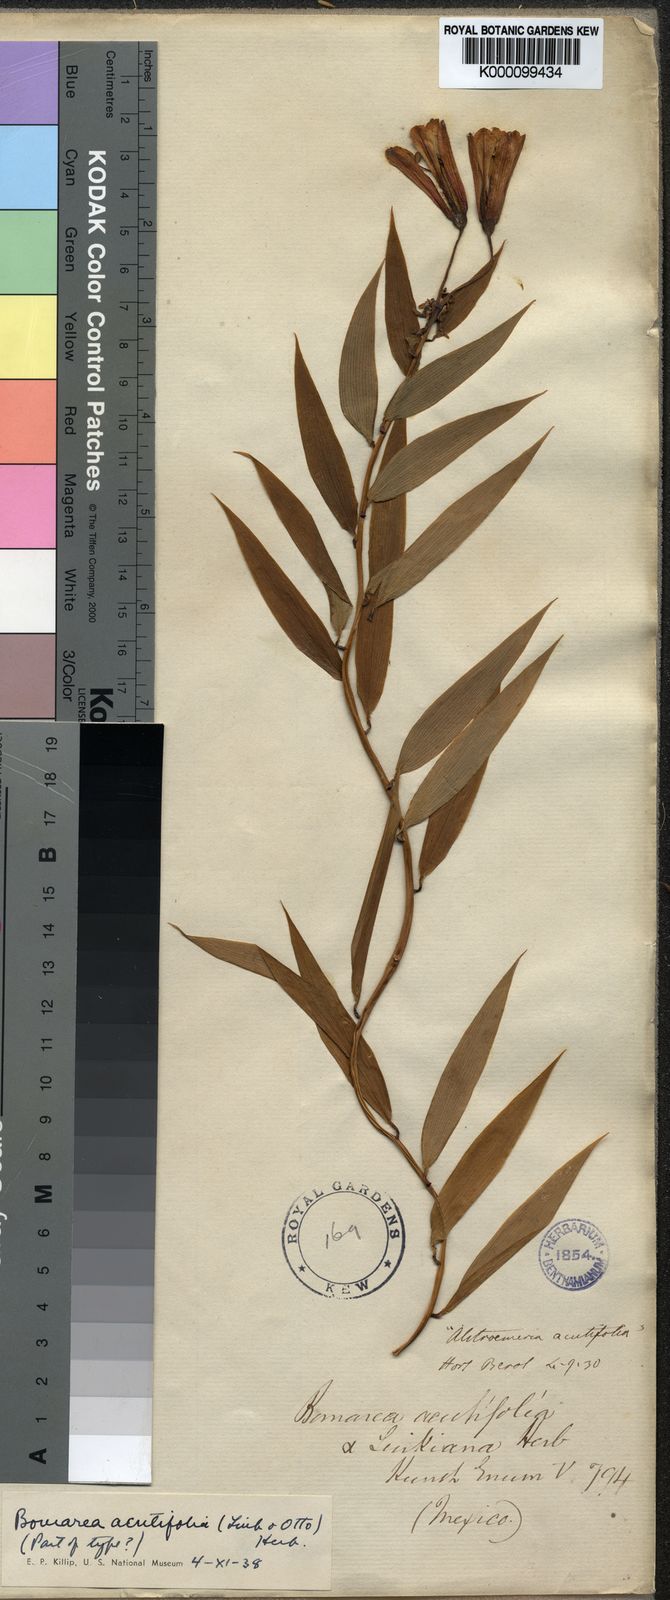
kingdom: Plantae
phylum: Tracheophyta
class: Liliopsida
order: Liliales
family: Alstroemeriaceae
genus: Bomarea
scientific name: Bomarea acutifolia
